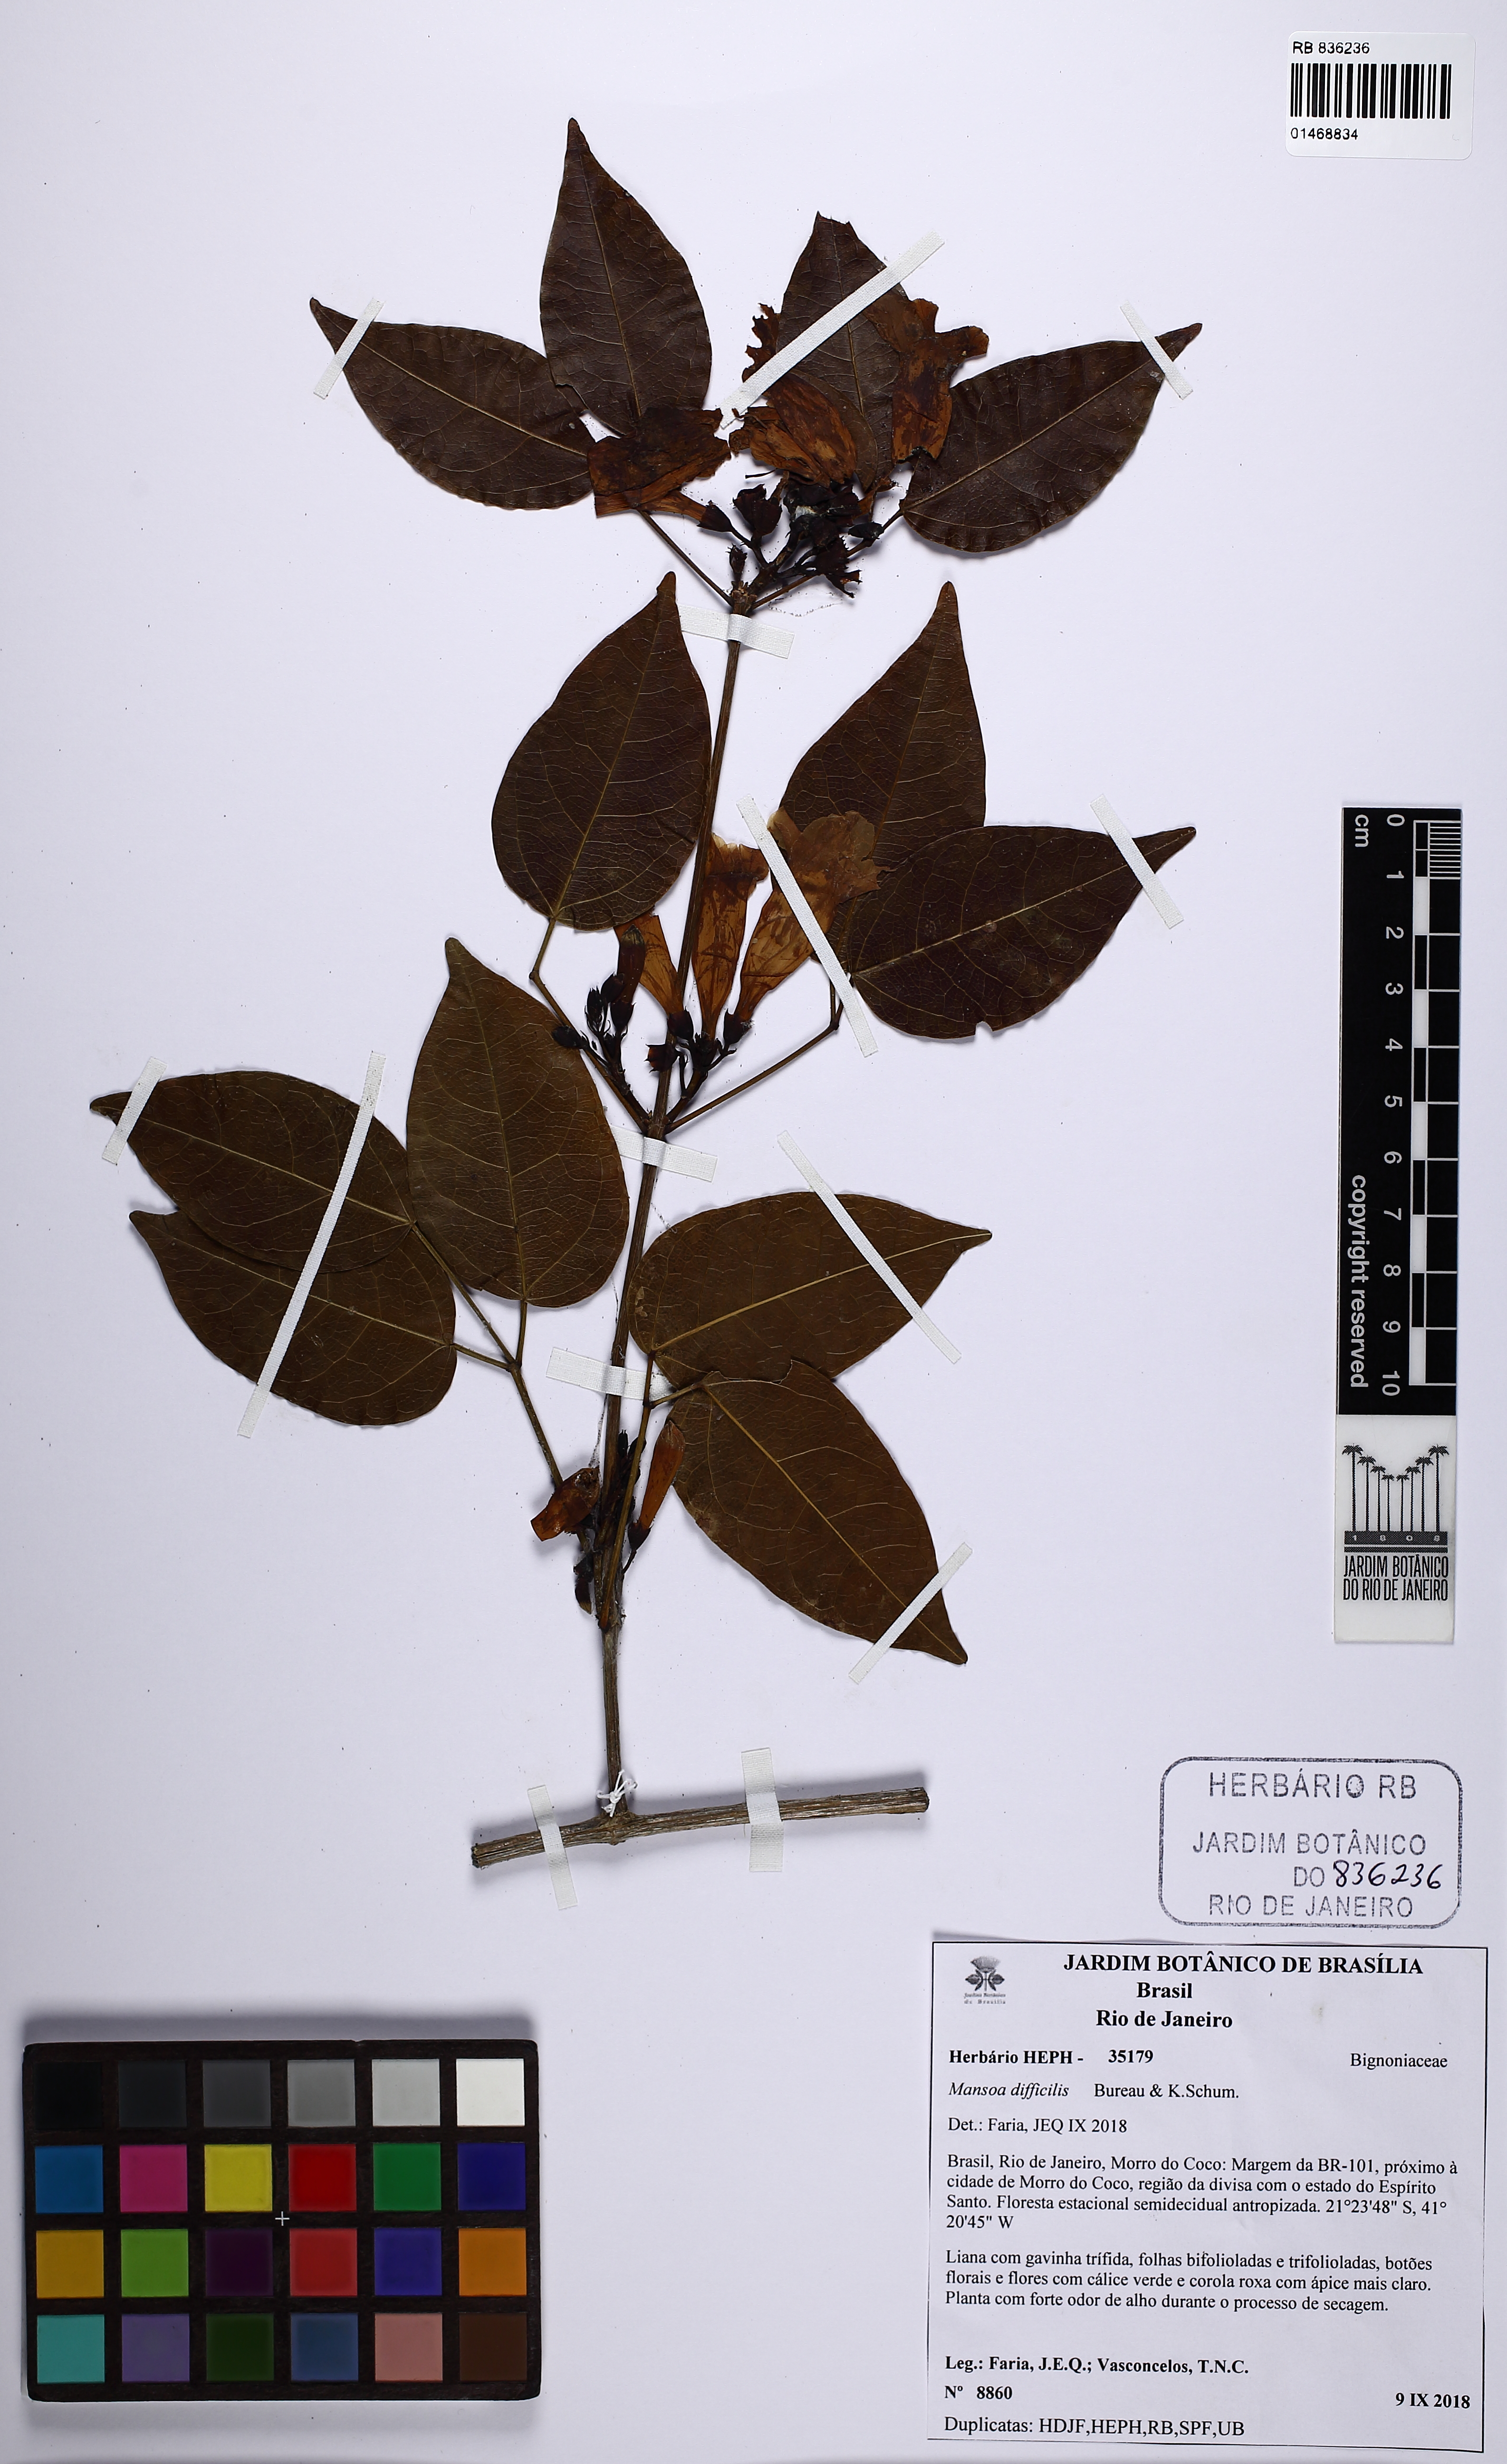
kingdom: Plantae
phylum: Tracheophyta
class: Magnoliopsida
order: Lamiales
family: Bignoniaceae
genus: Mansoa
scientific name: Mansoa difficilis
